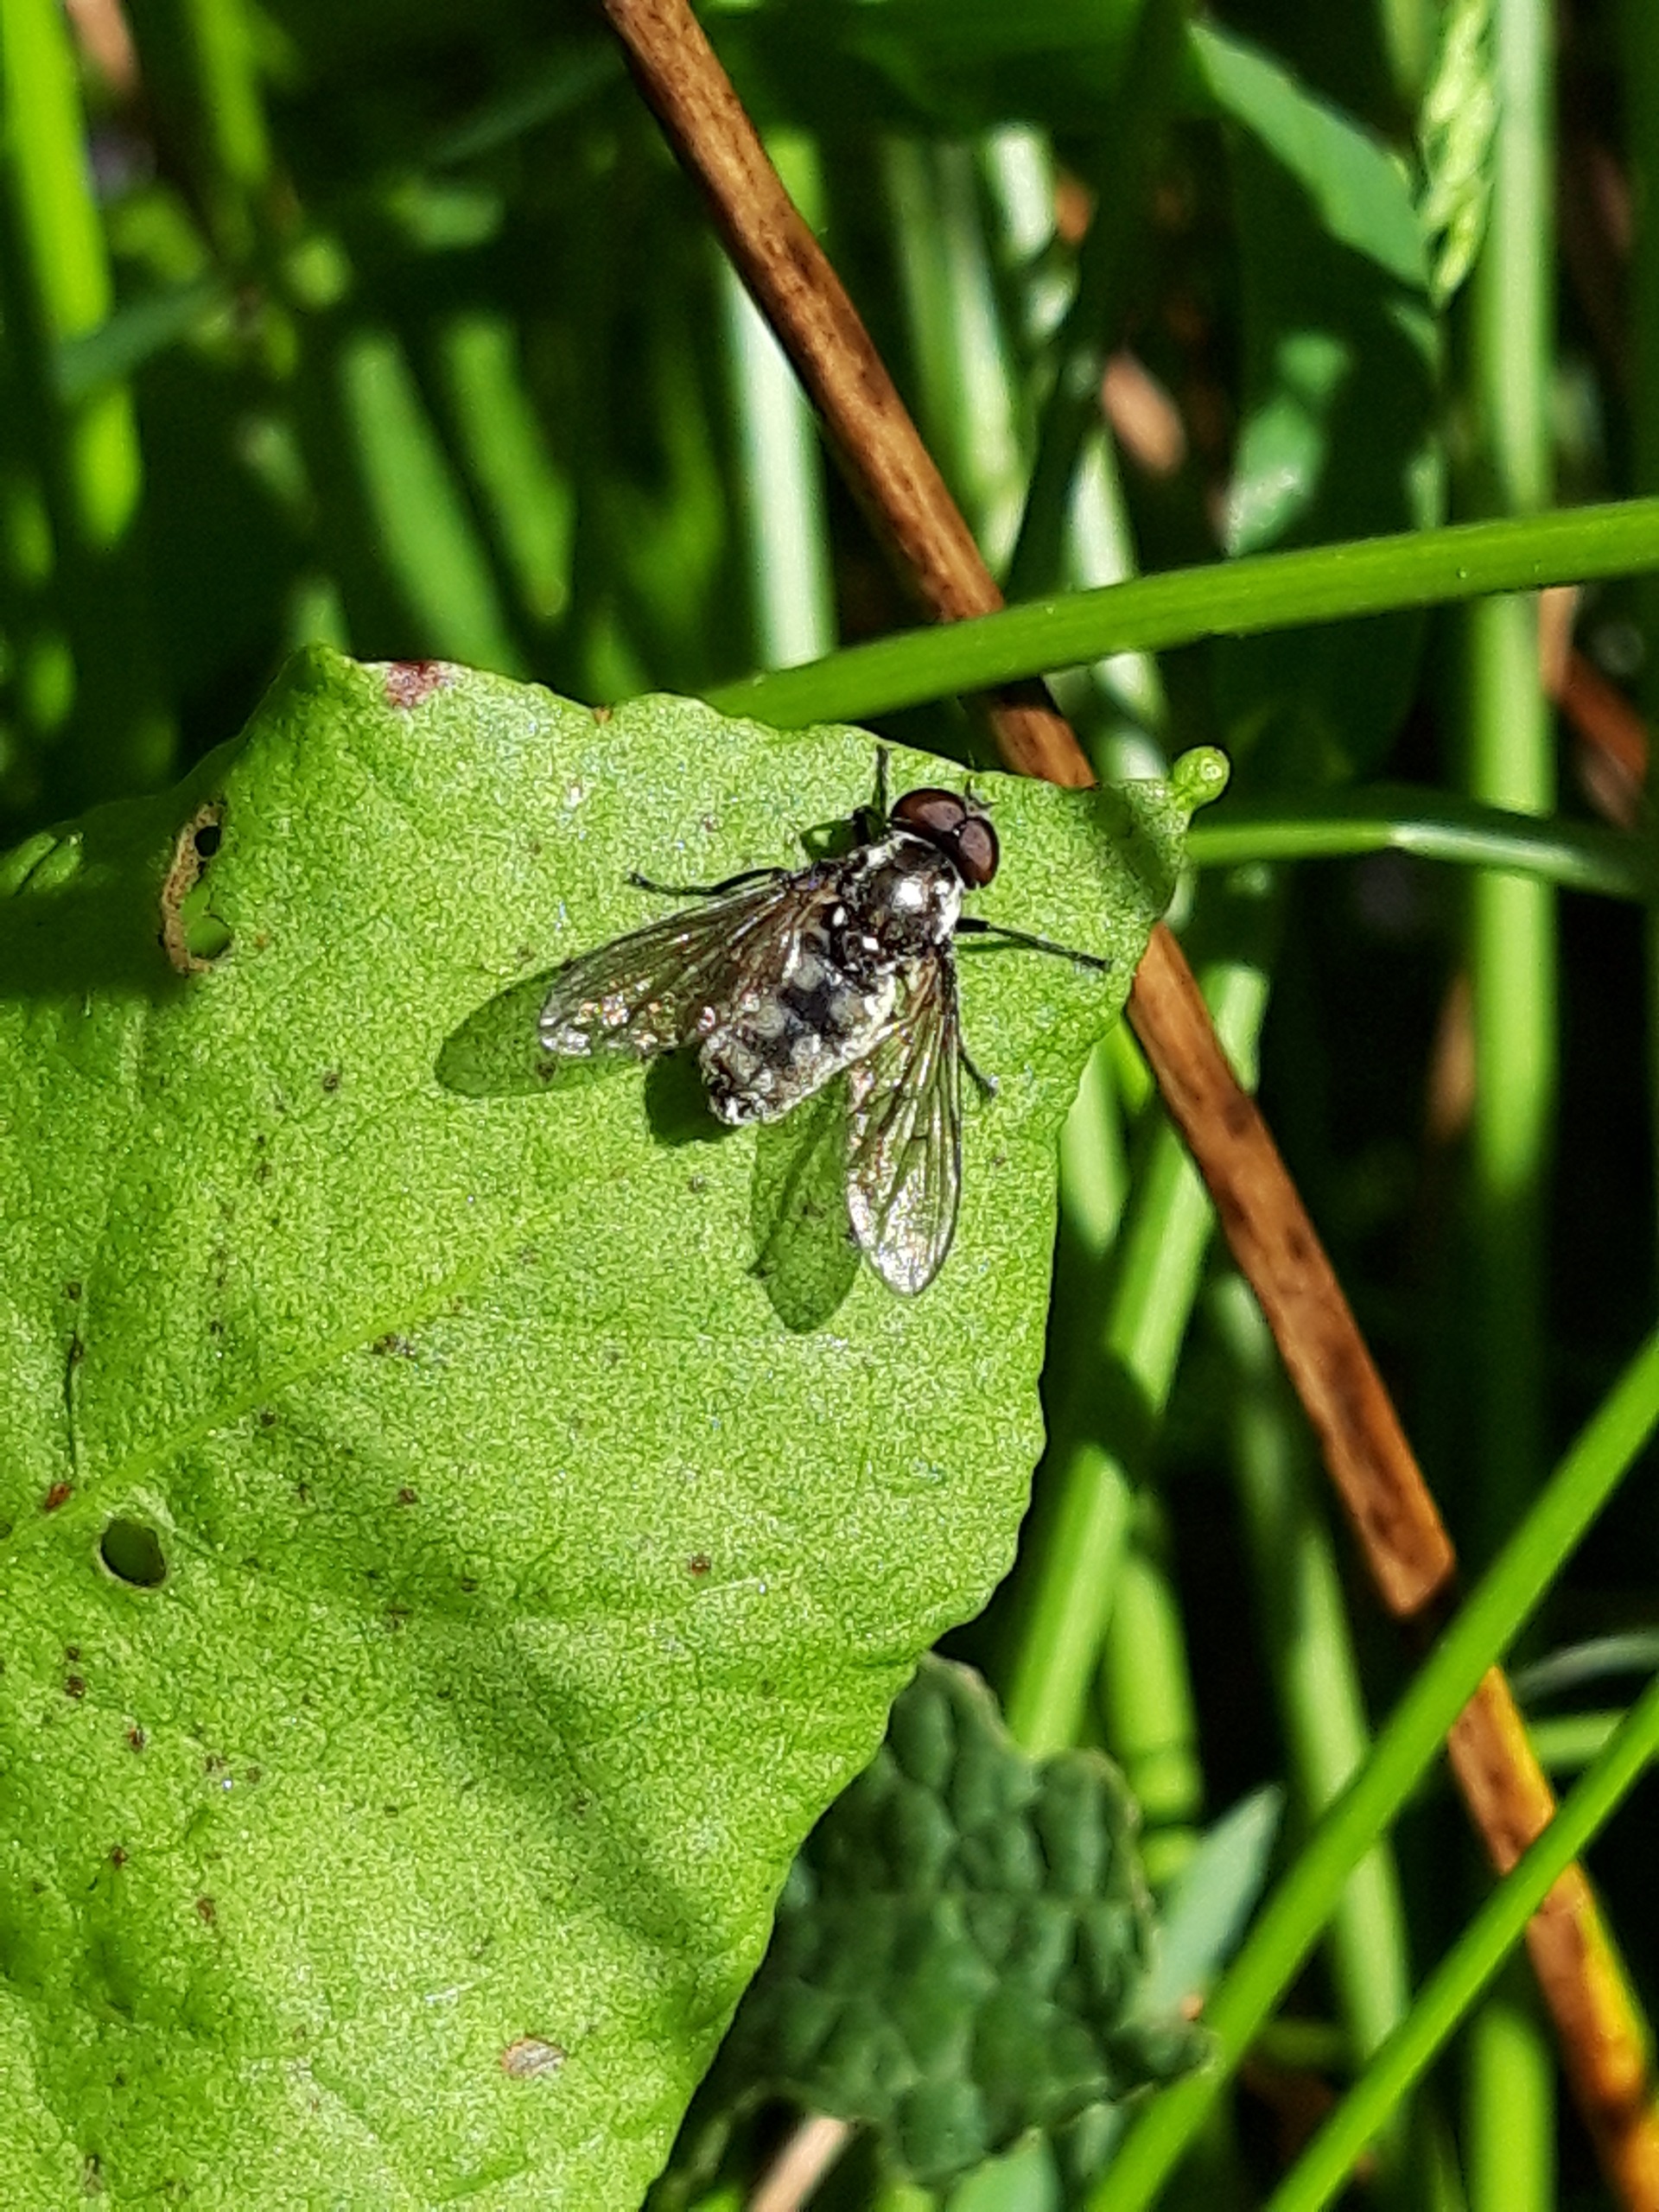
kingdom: Animalia
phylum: Arthropoda
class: Insecta
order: Diptera
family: Syrphidae
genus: Portevinia
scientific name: Portevinia maculata
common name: Ramsløg-svirreflue
